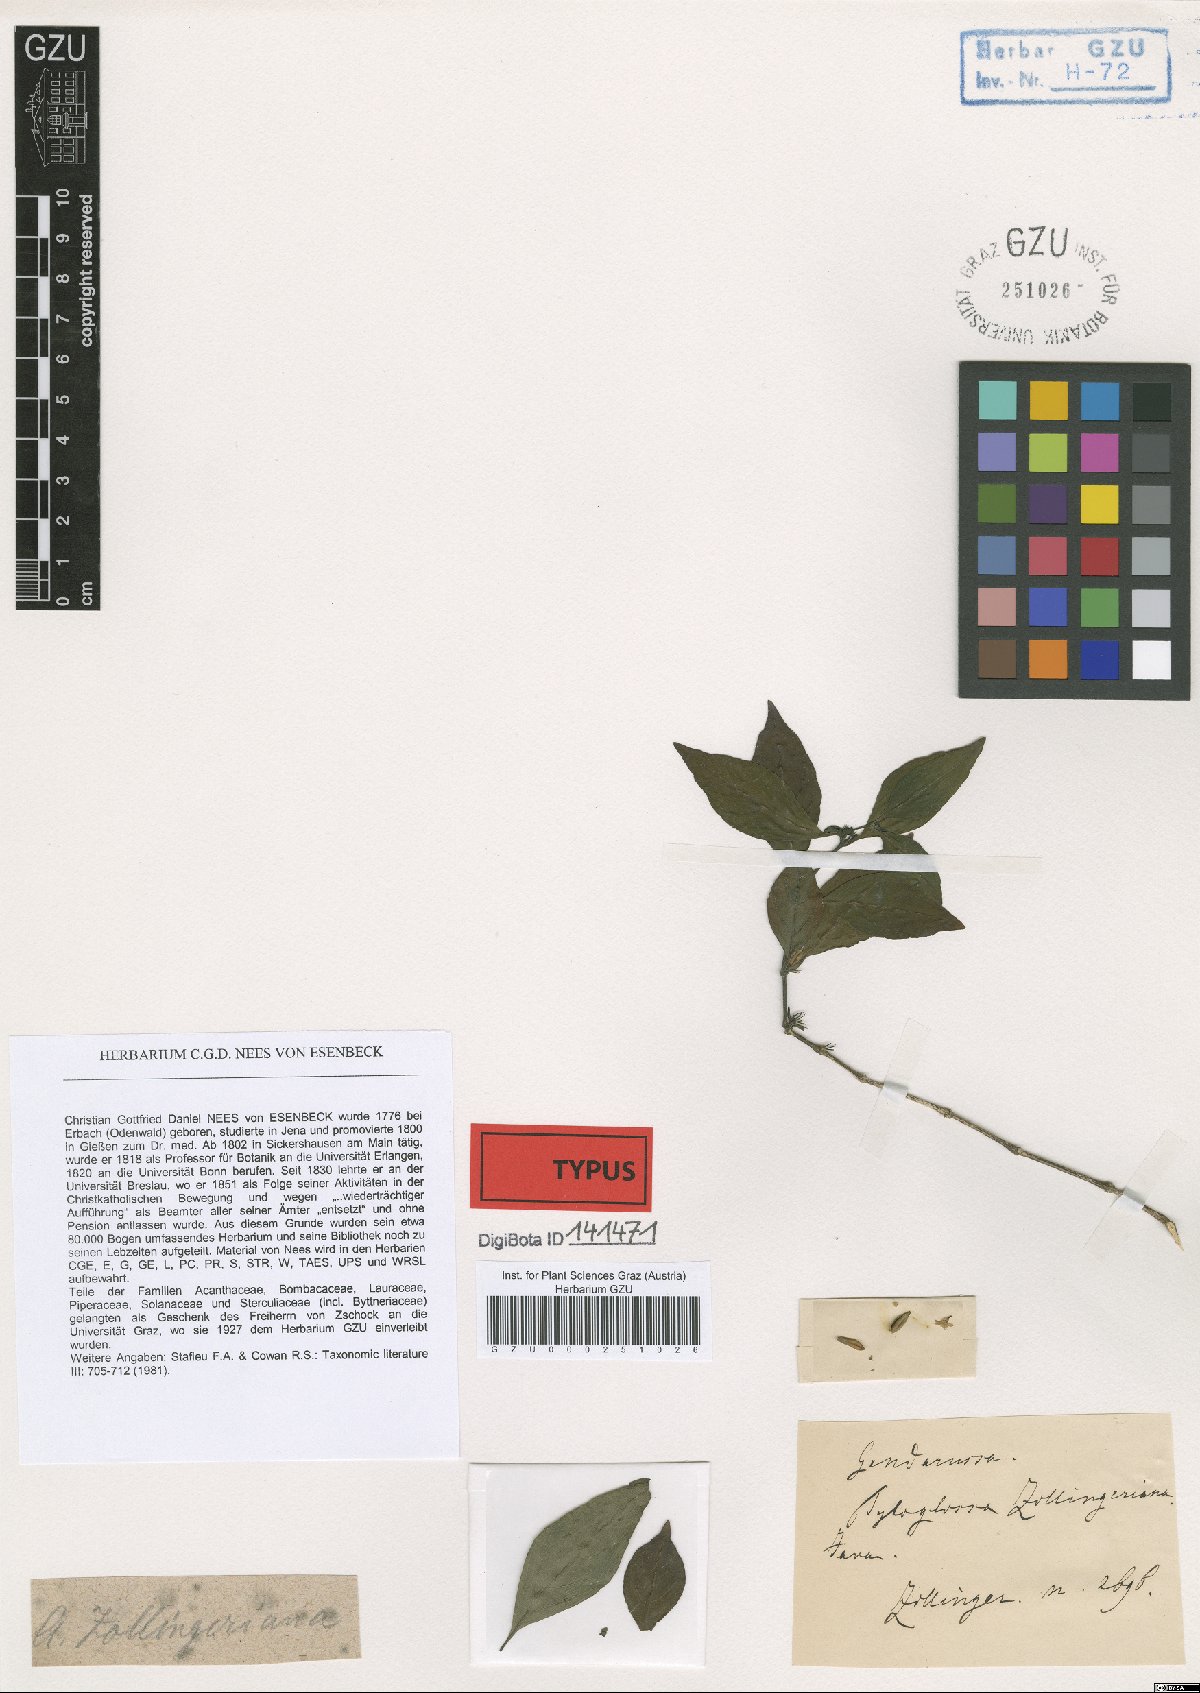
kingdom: Plantae
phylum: Tracheophyta
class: Magnoliopsida
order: Lamiales
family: Acanthaceae
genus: Justicia
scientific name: Justicia quadrifaria
